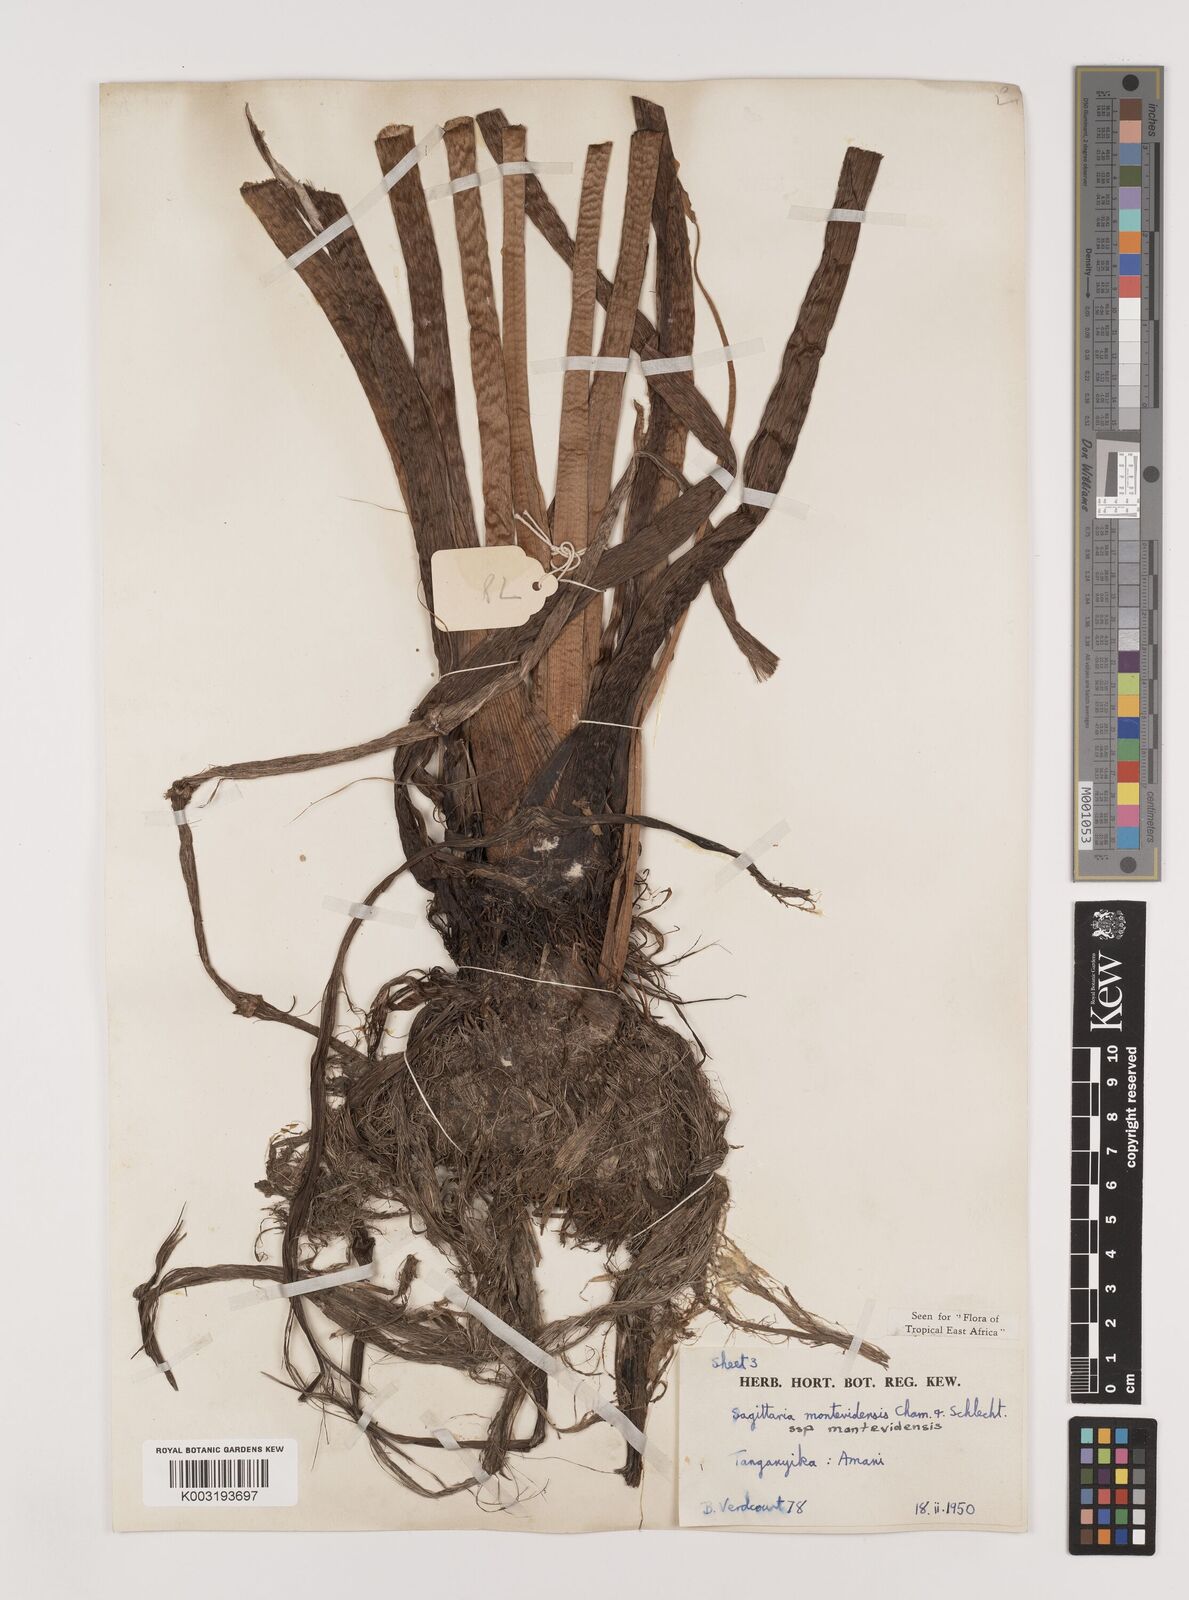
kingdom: Plantae
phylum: Tracheophyta
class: Liliopsida
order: Alismatales
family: Alismataceae
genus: Sagittaria
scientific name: Sagittaria montevidensis
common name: Giant arrowhead
